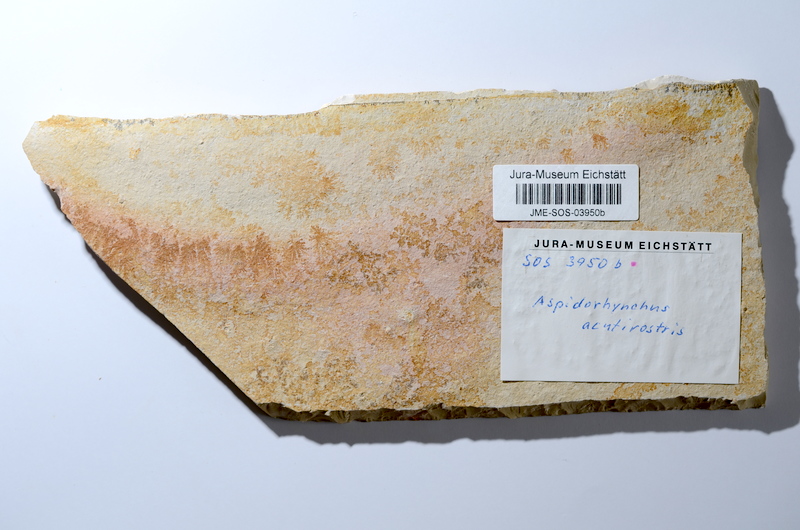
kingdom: Animalia
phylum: Chordata
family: Aspidorhynchidae
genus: Aspidorhynchus
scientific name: Aspidorhynchus acutirostris
